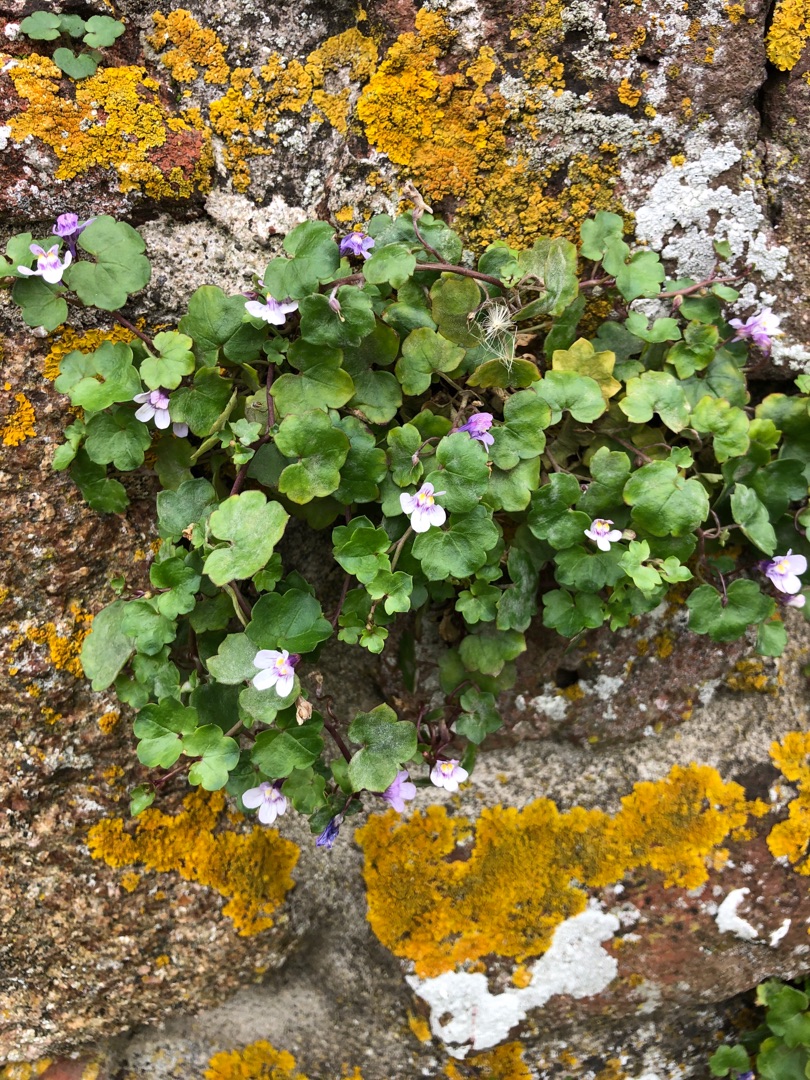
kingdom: Plantae
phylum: Tracheophyta
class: Magnoliopsida
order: Lamiales
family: Plantaginaceae
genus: Cymbalaria
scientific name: Cymbalaria muralis
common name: Vedbend-torskemund
